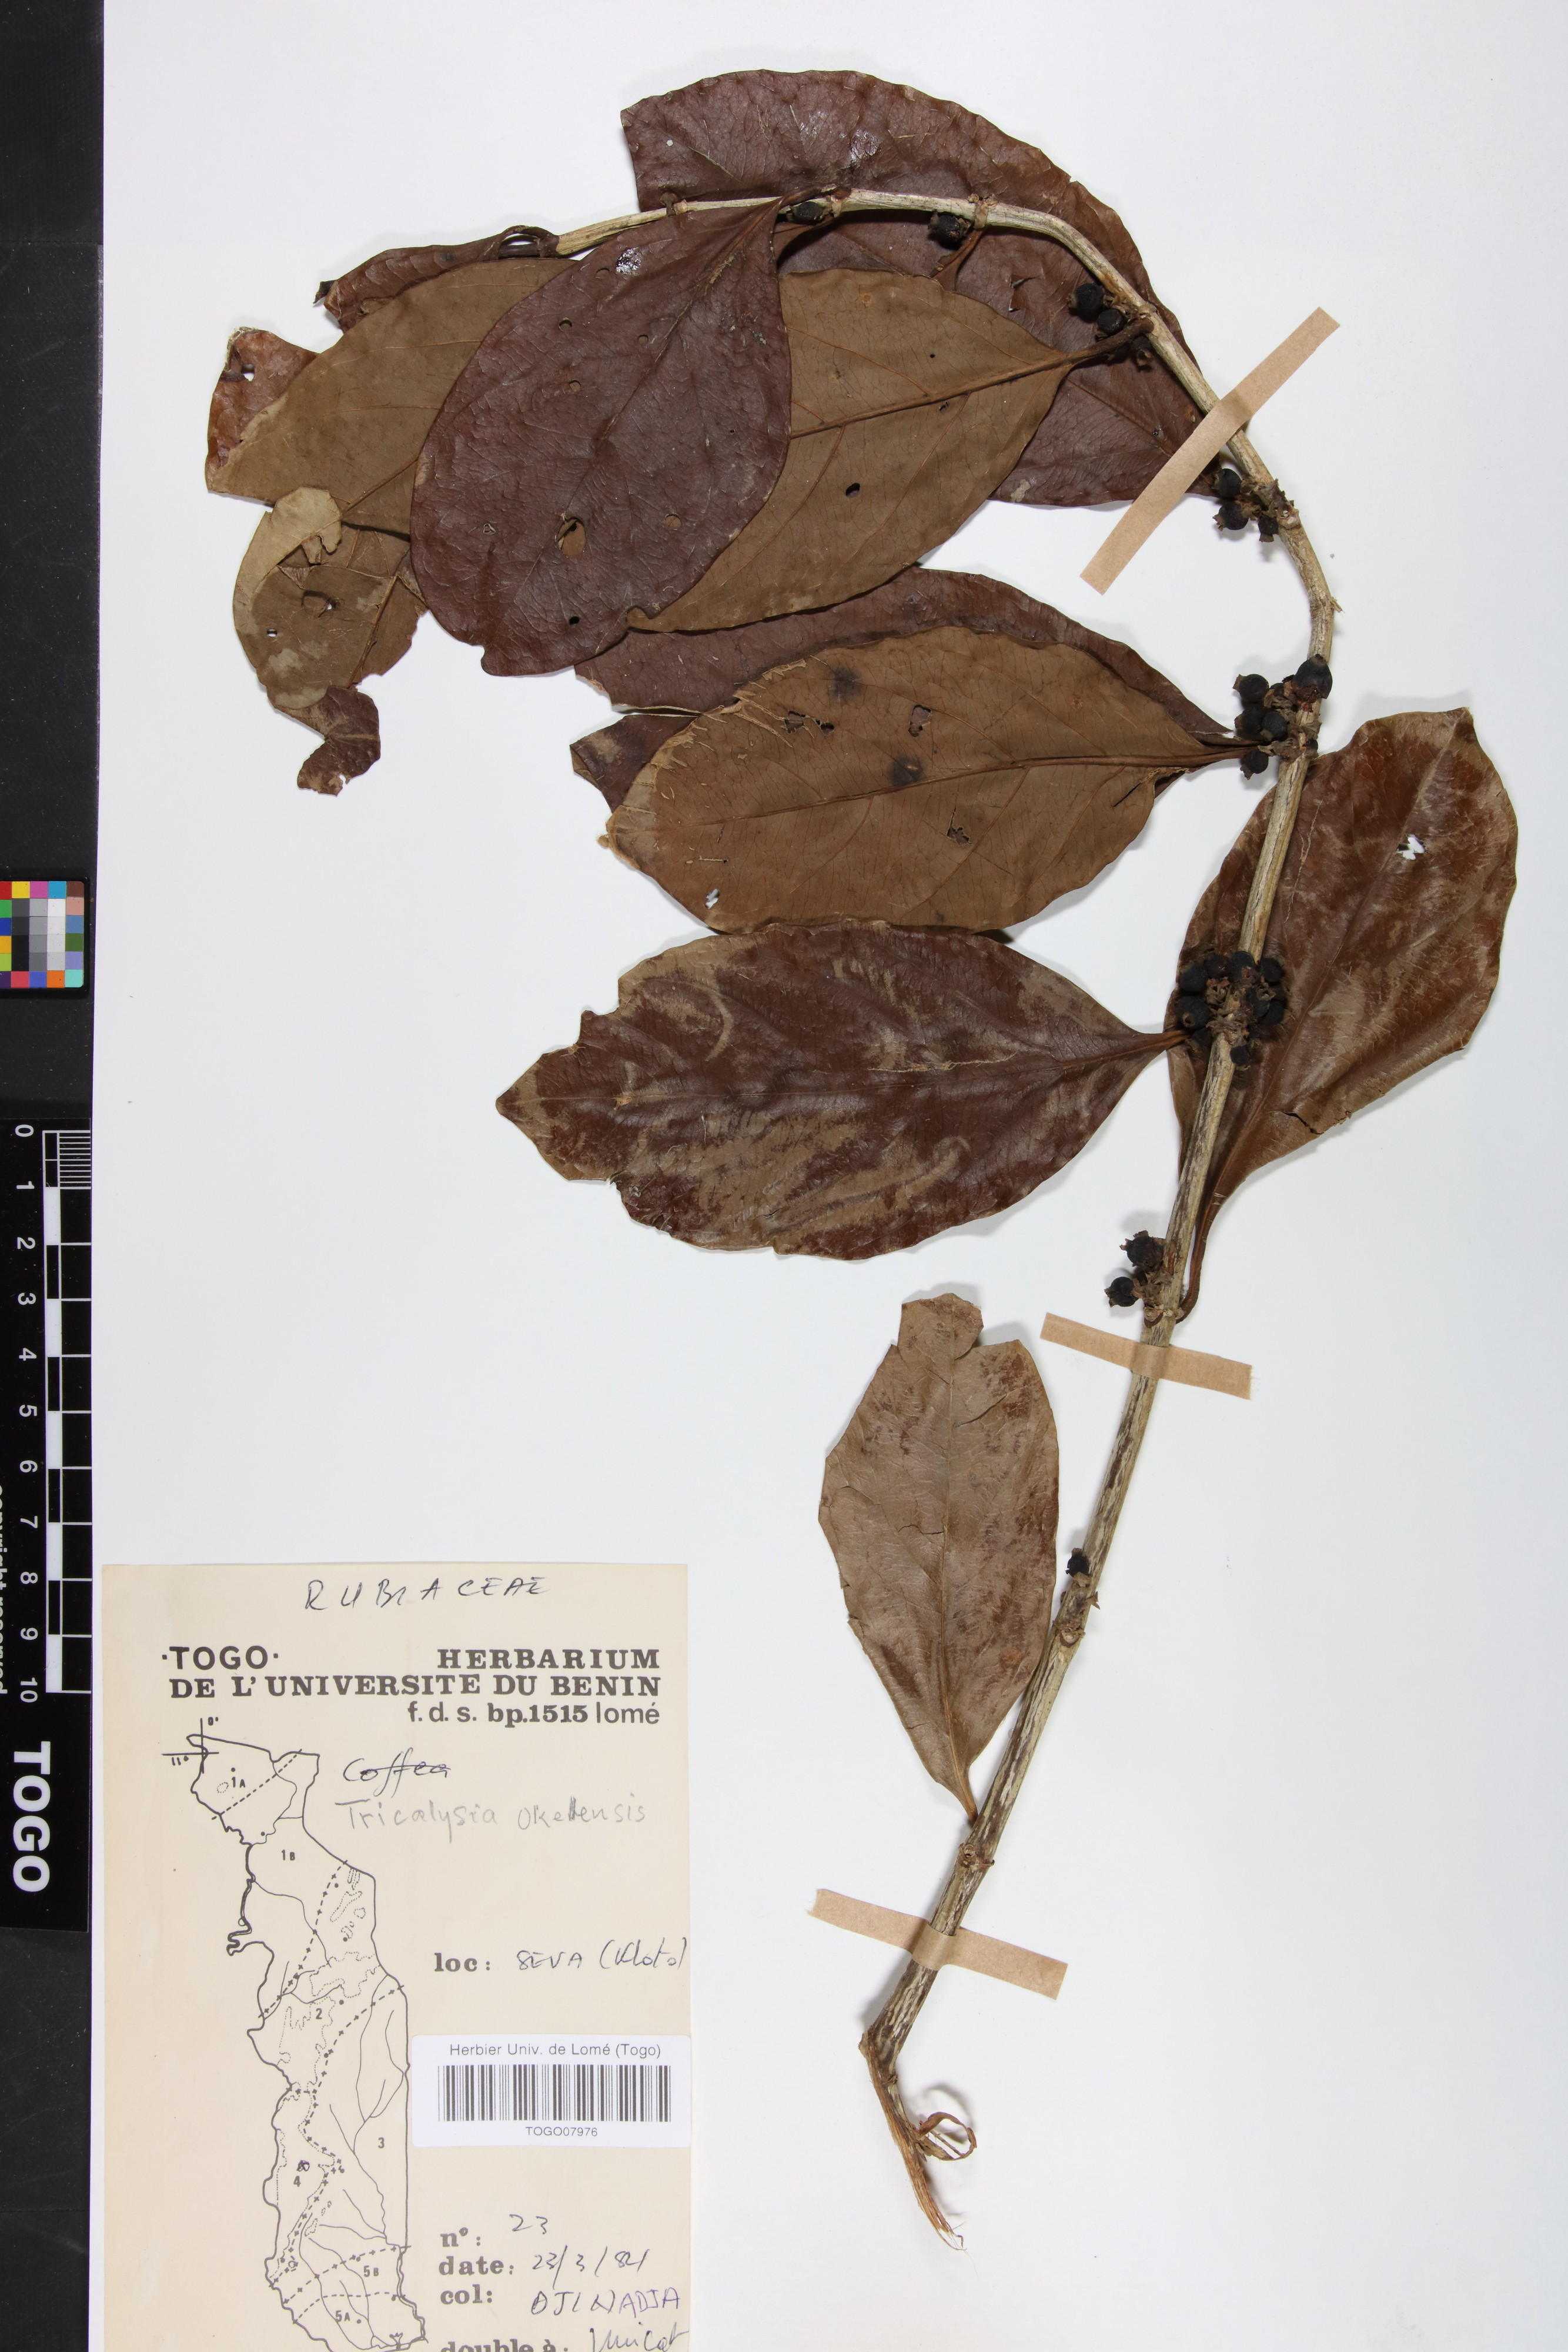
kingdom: Plantae
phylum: Tracheophyta
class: Magnoliopsida
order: Gentianales
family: Rubiaceae
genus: Tricalysia
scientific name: Tricalysia okelensis
